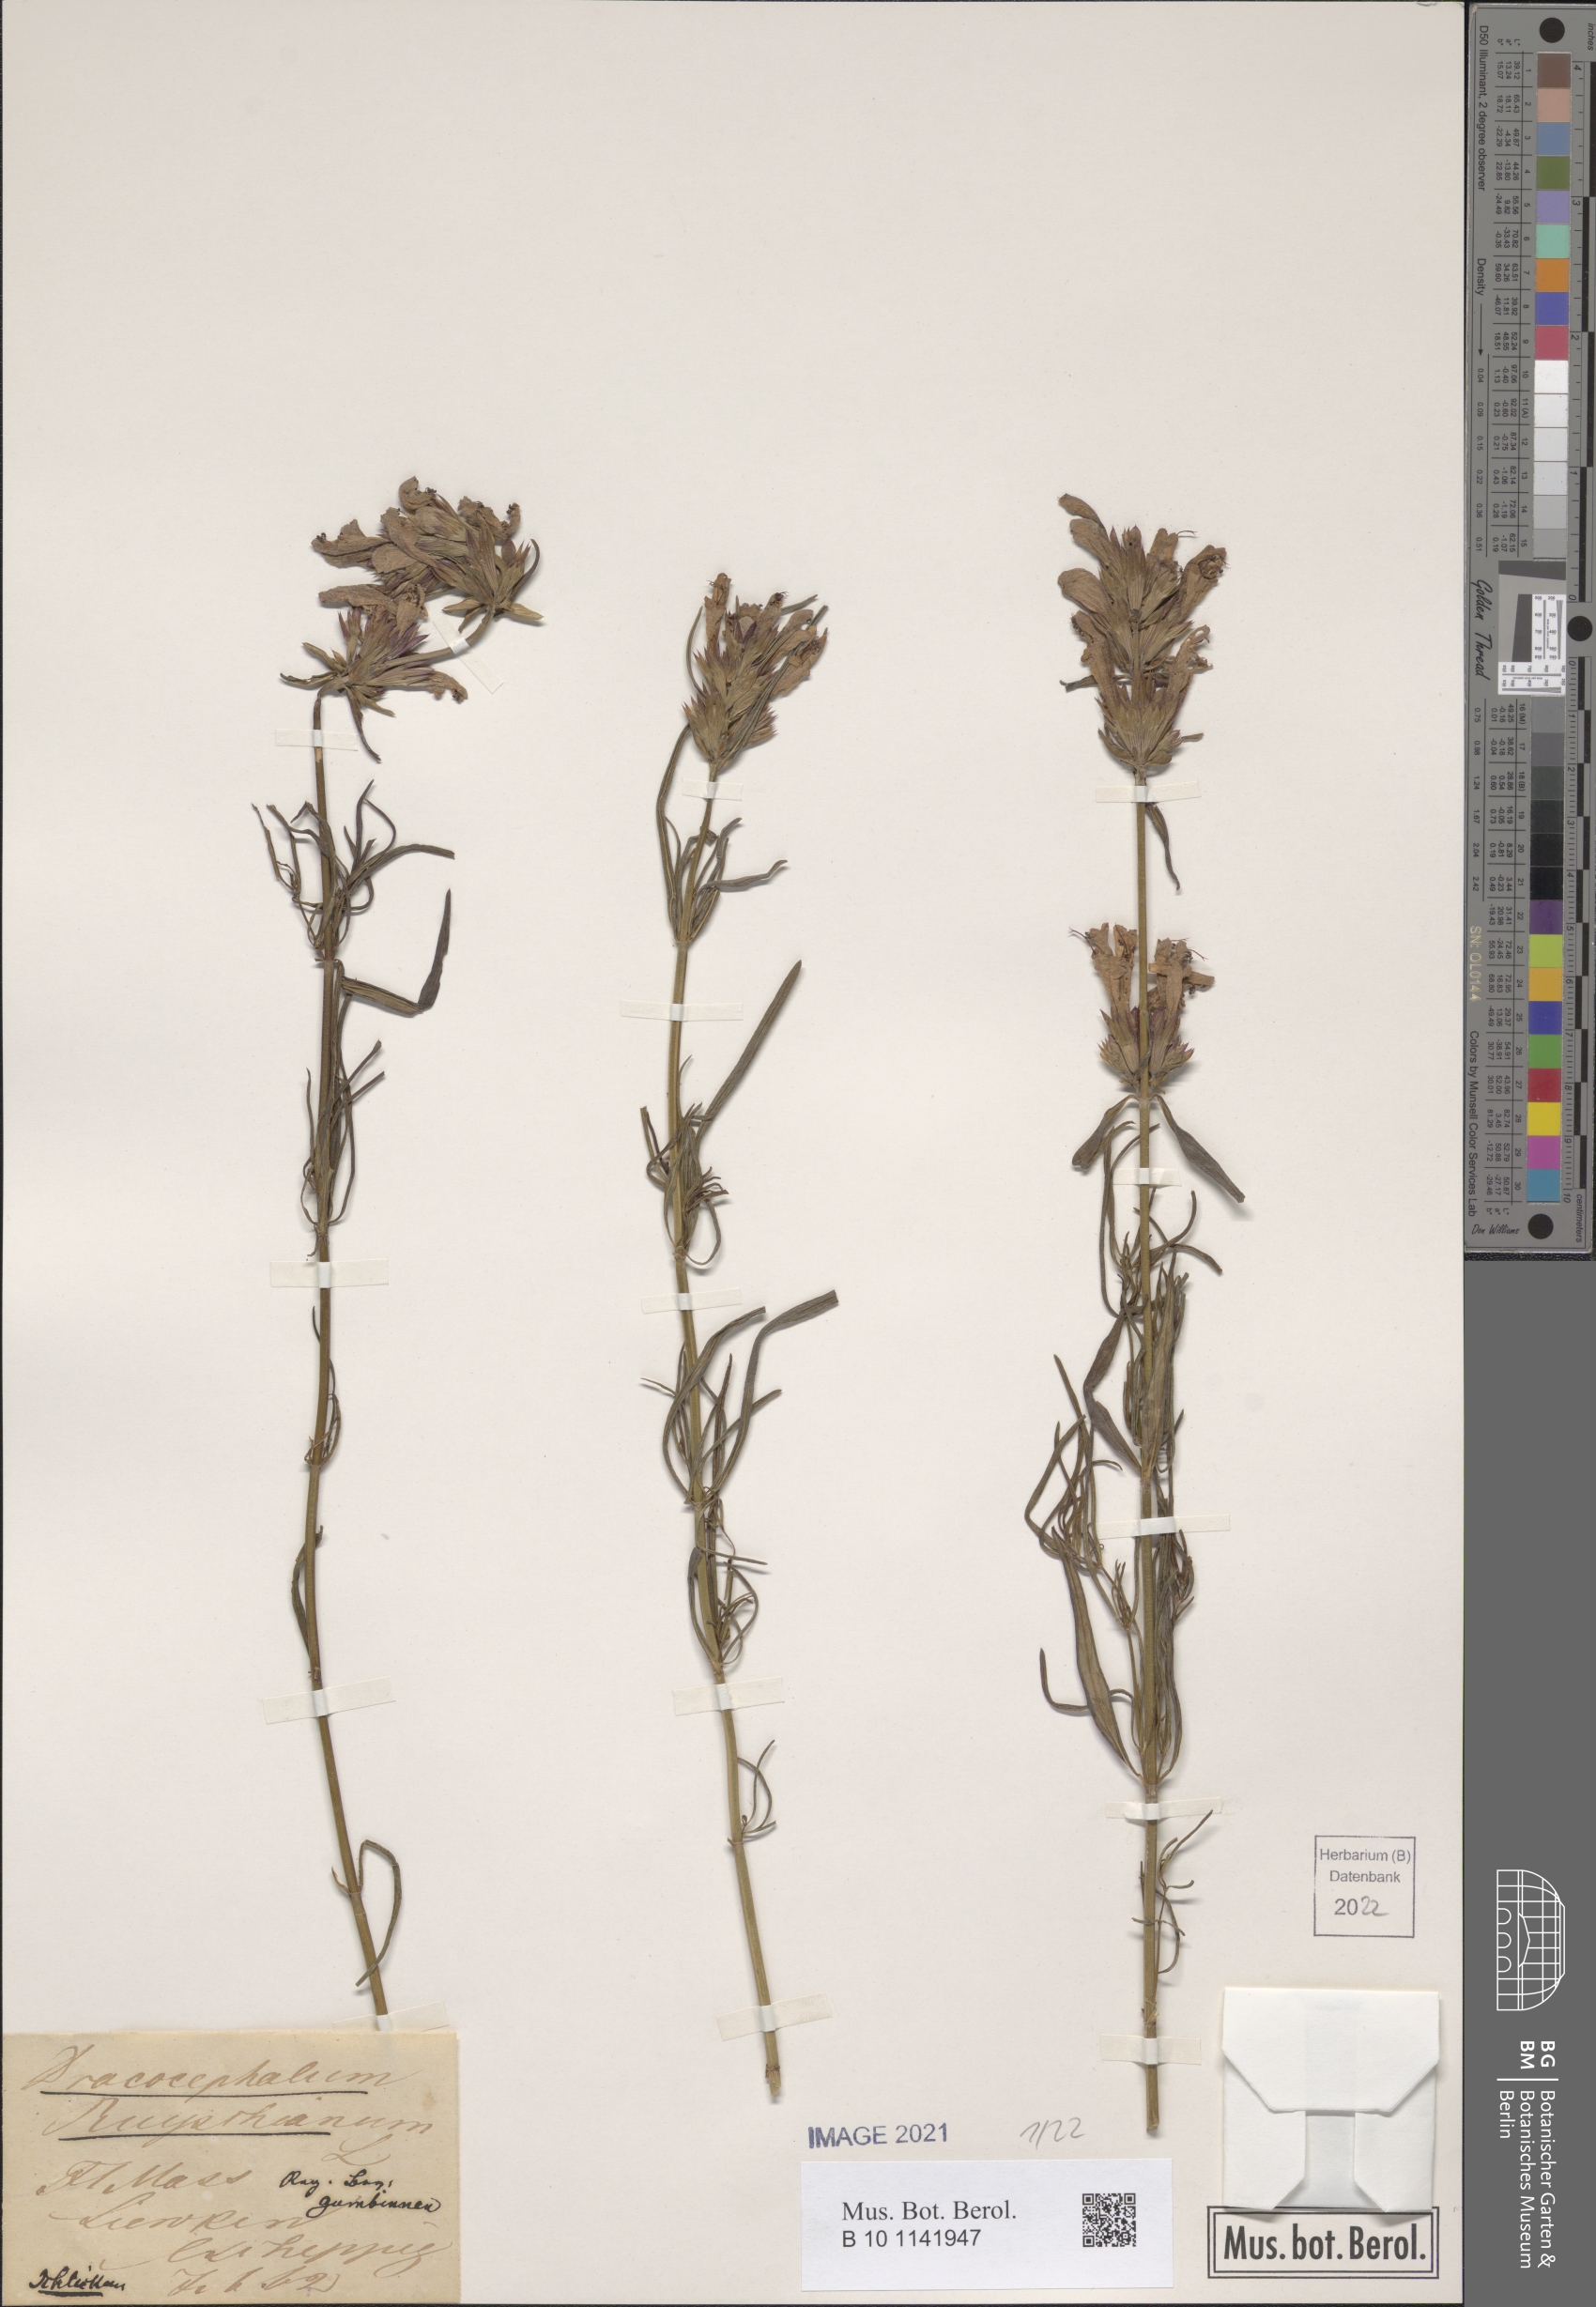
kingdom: Plantae
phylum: Tracheophyta
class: Magnoliopsida
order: Lamiales
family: Lamiaceae
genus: Dracocephalum
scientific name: Dracocephalum ruyschiana
